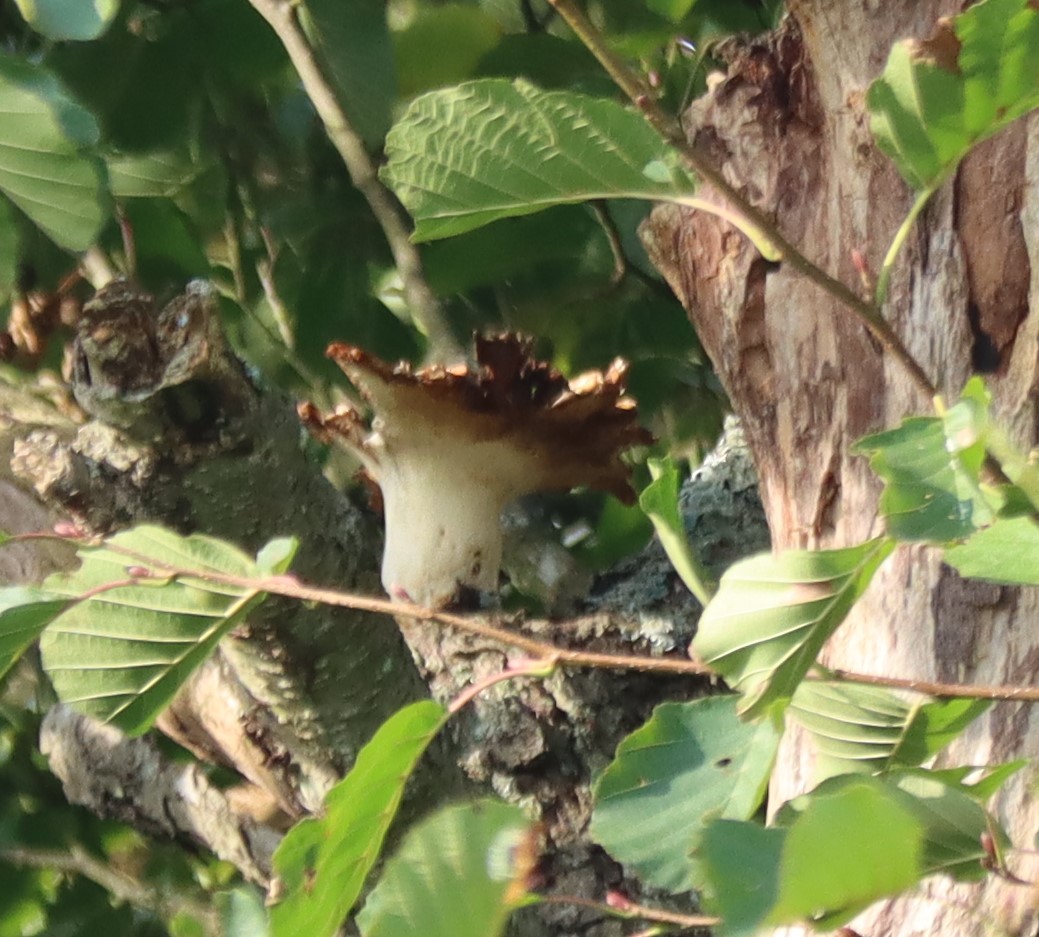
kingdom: Fungi
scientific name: Fungi
